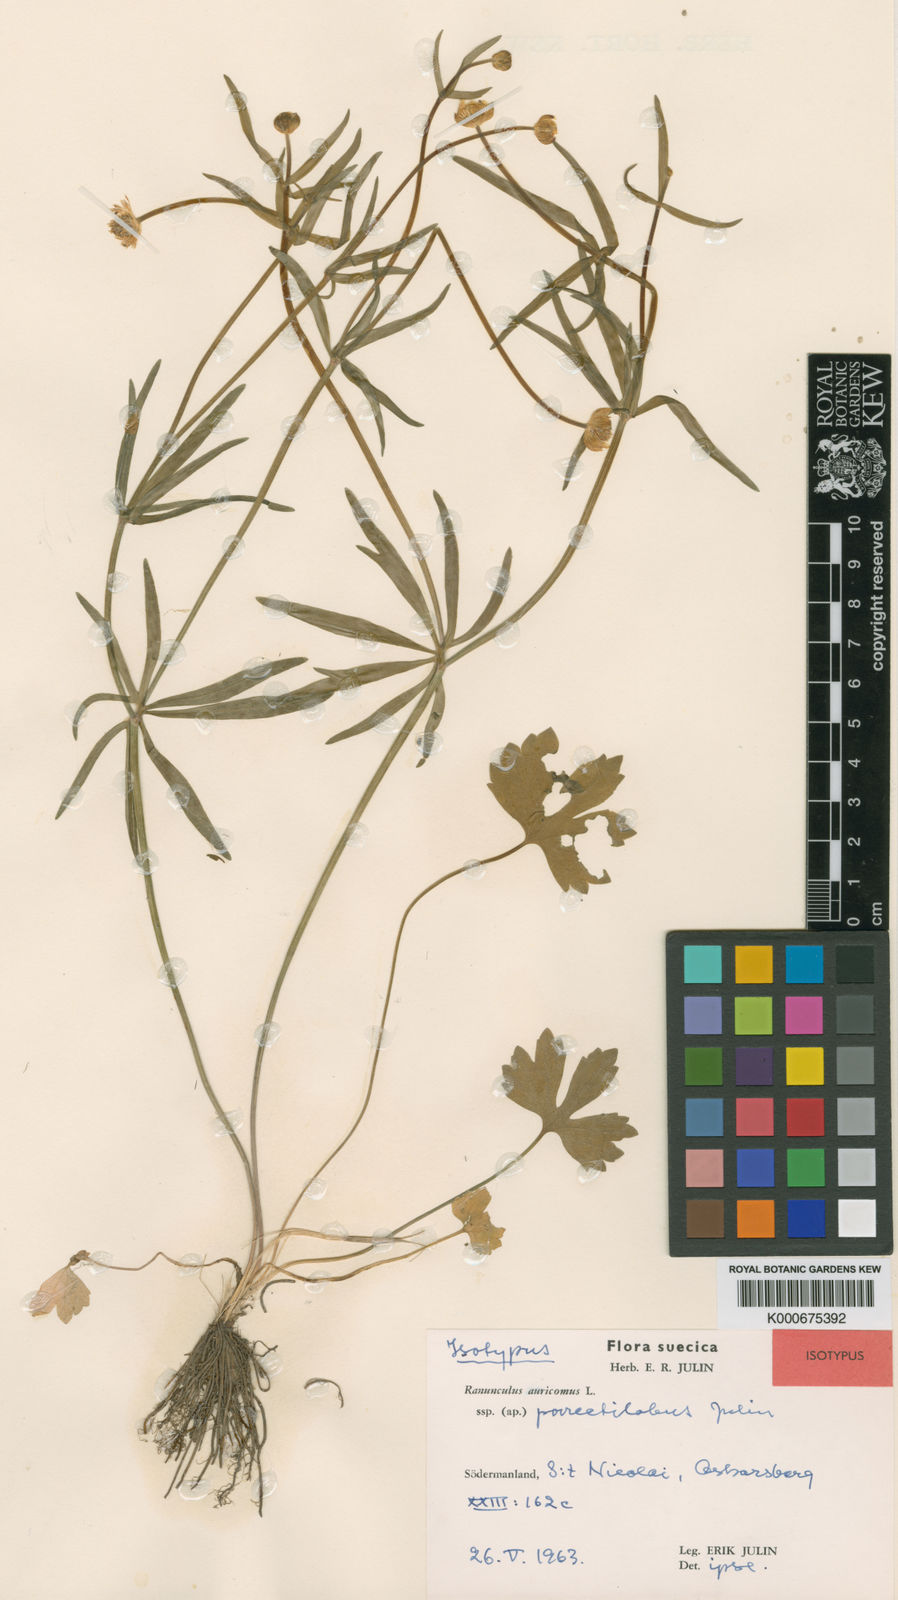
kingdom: Plantae
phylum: Tracheophyta
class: Magnoliopsida
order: Ranunculales
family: Ranunculaceae
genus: Ranunculus
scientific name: Ranunculus auricomus
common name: Goldilocks buttercup
